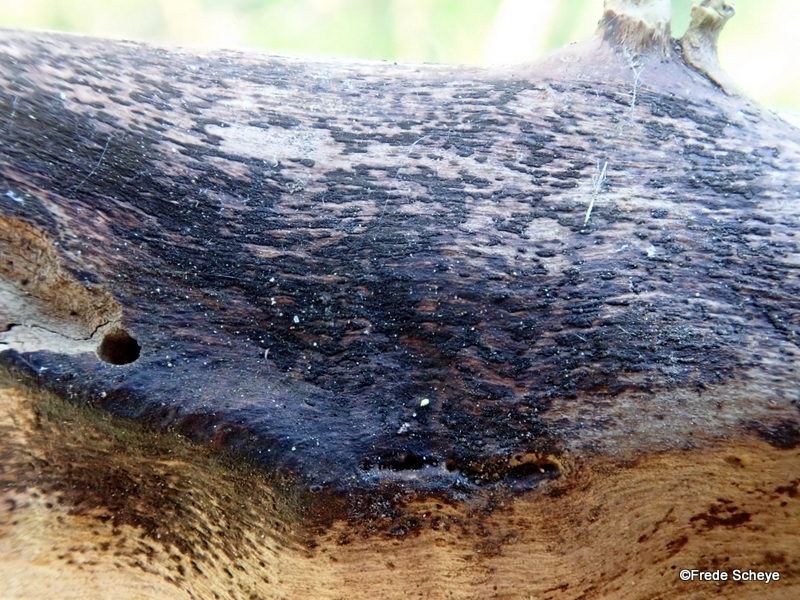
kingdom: Fungi
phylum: Ascomycota
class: Dothideomycetes
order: Pleosporales
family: Cryptocoryneaceae
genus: Cryptocoryneum
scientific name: Cryptocoryneum condensatum
